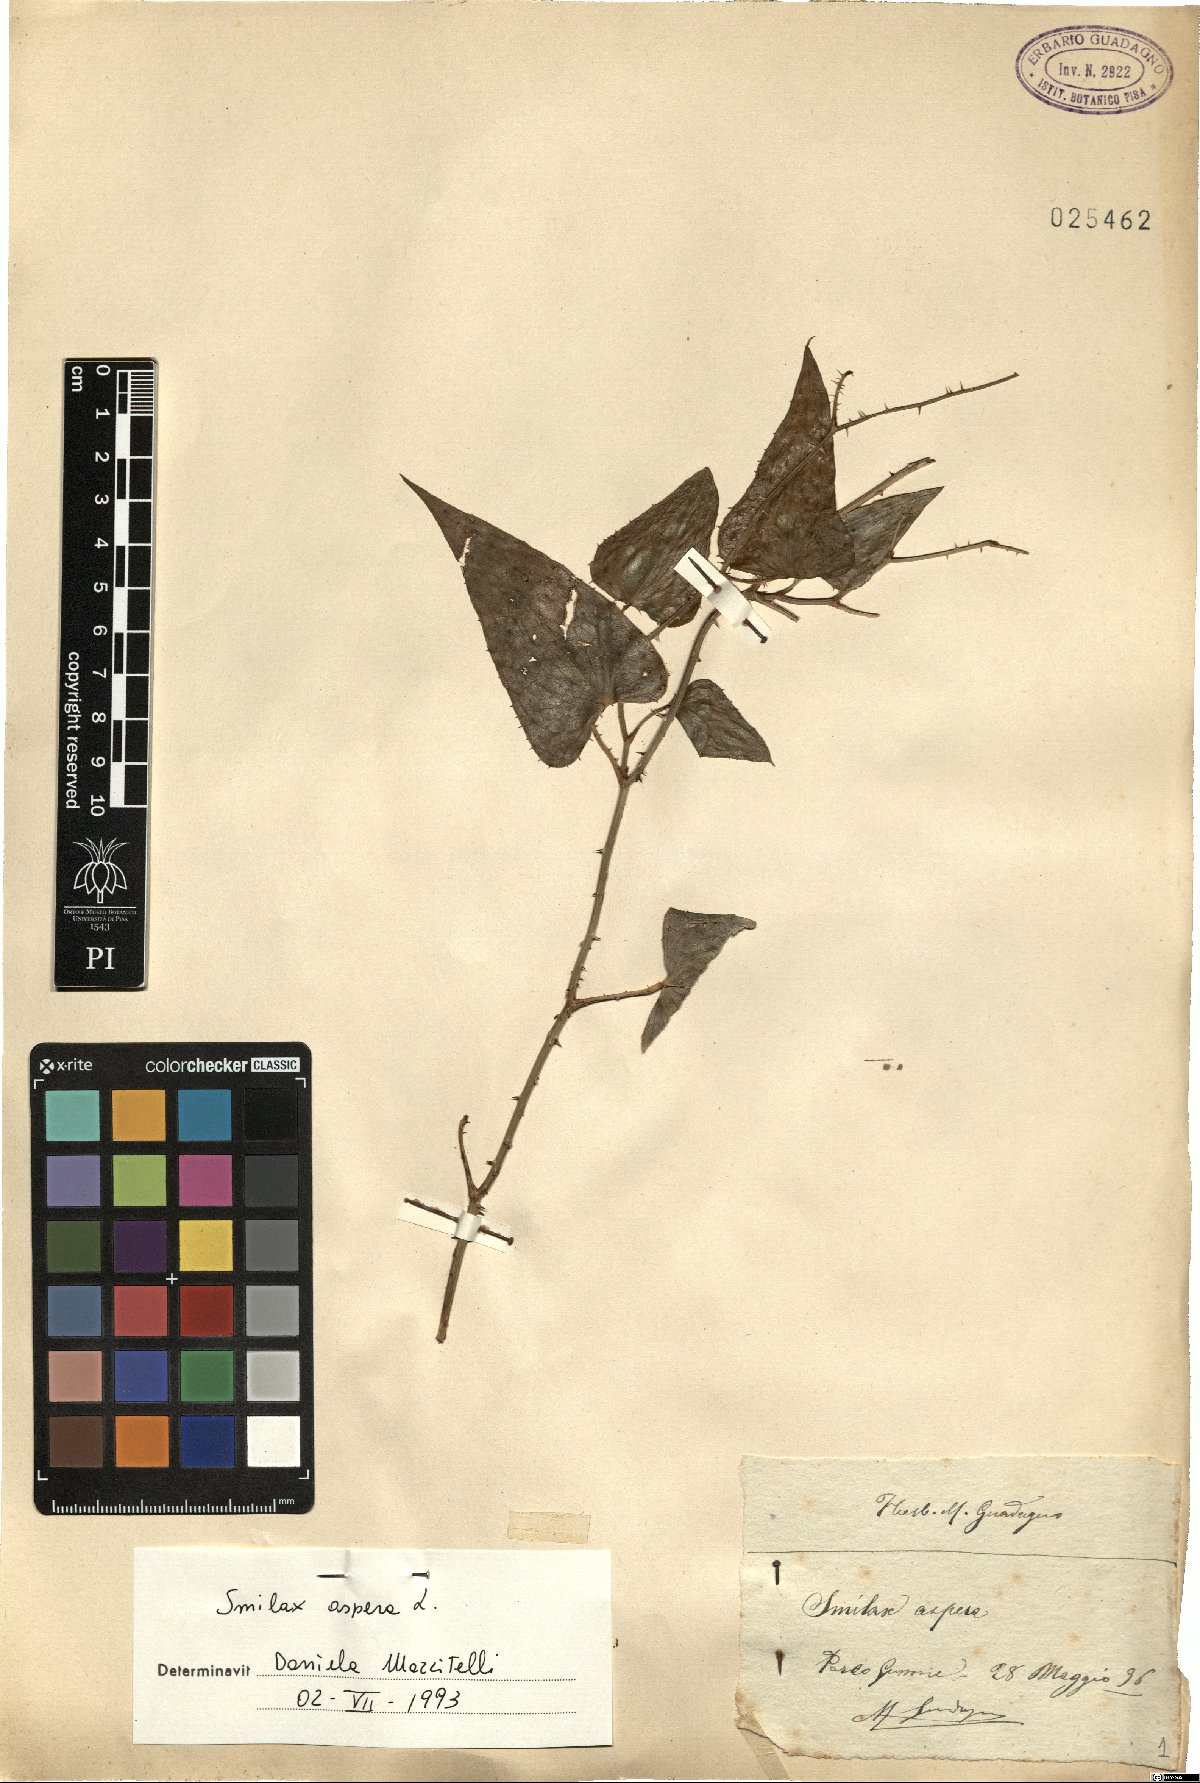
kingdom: Plantae
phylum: Tracheophyta
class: Liliopsida
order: Liliales
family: Smilacaceae
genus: Smilax
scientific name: Smilax aspera
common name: Common smilax
